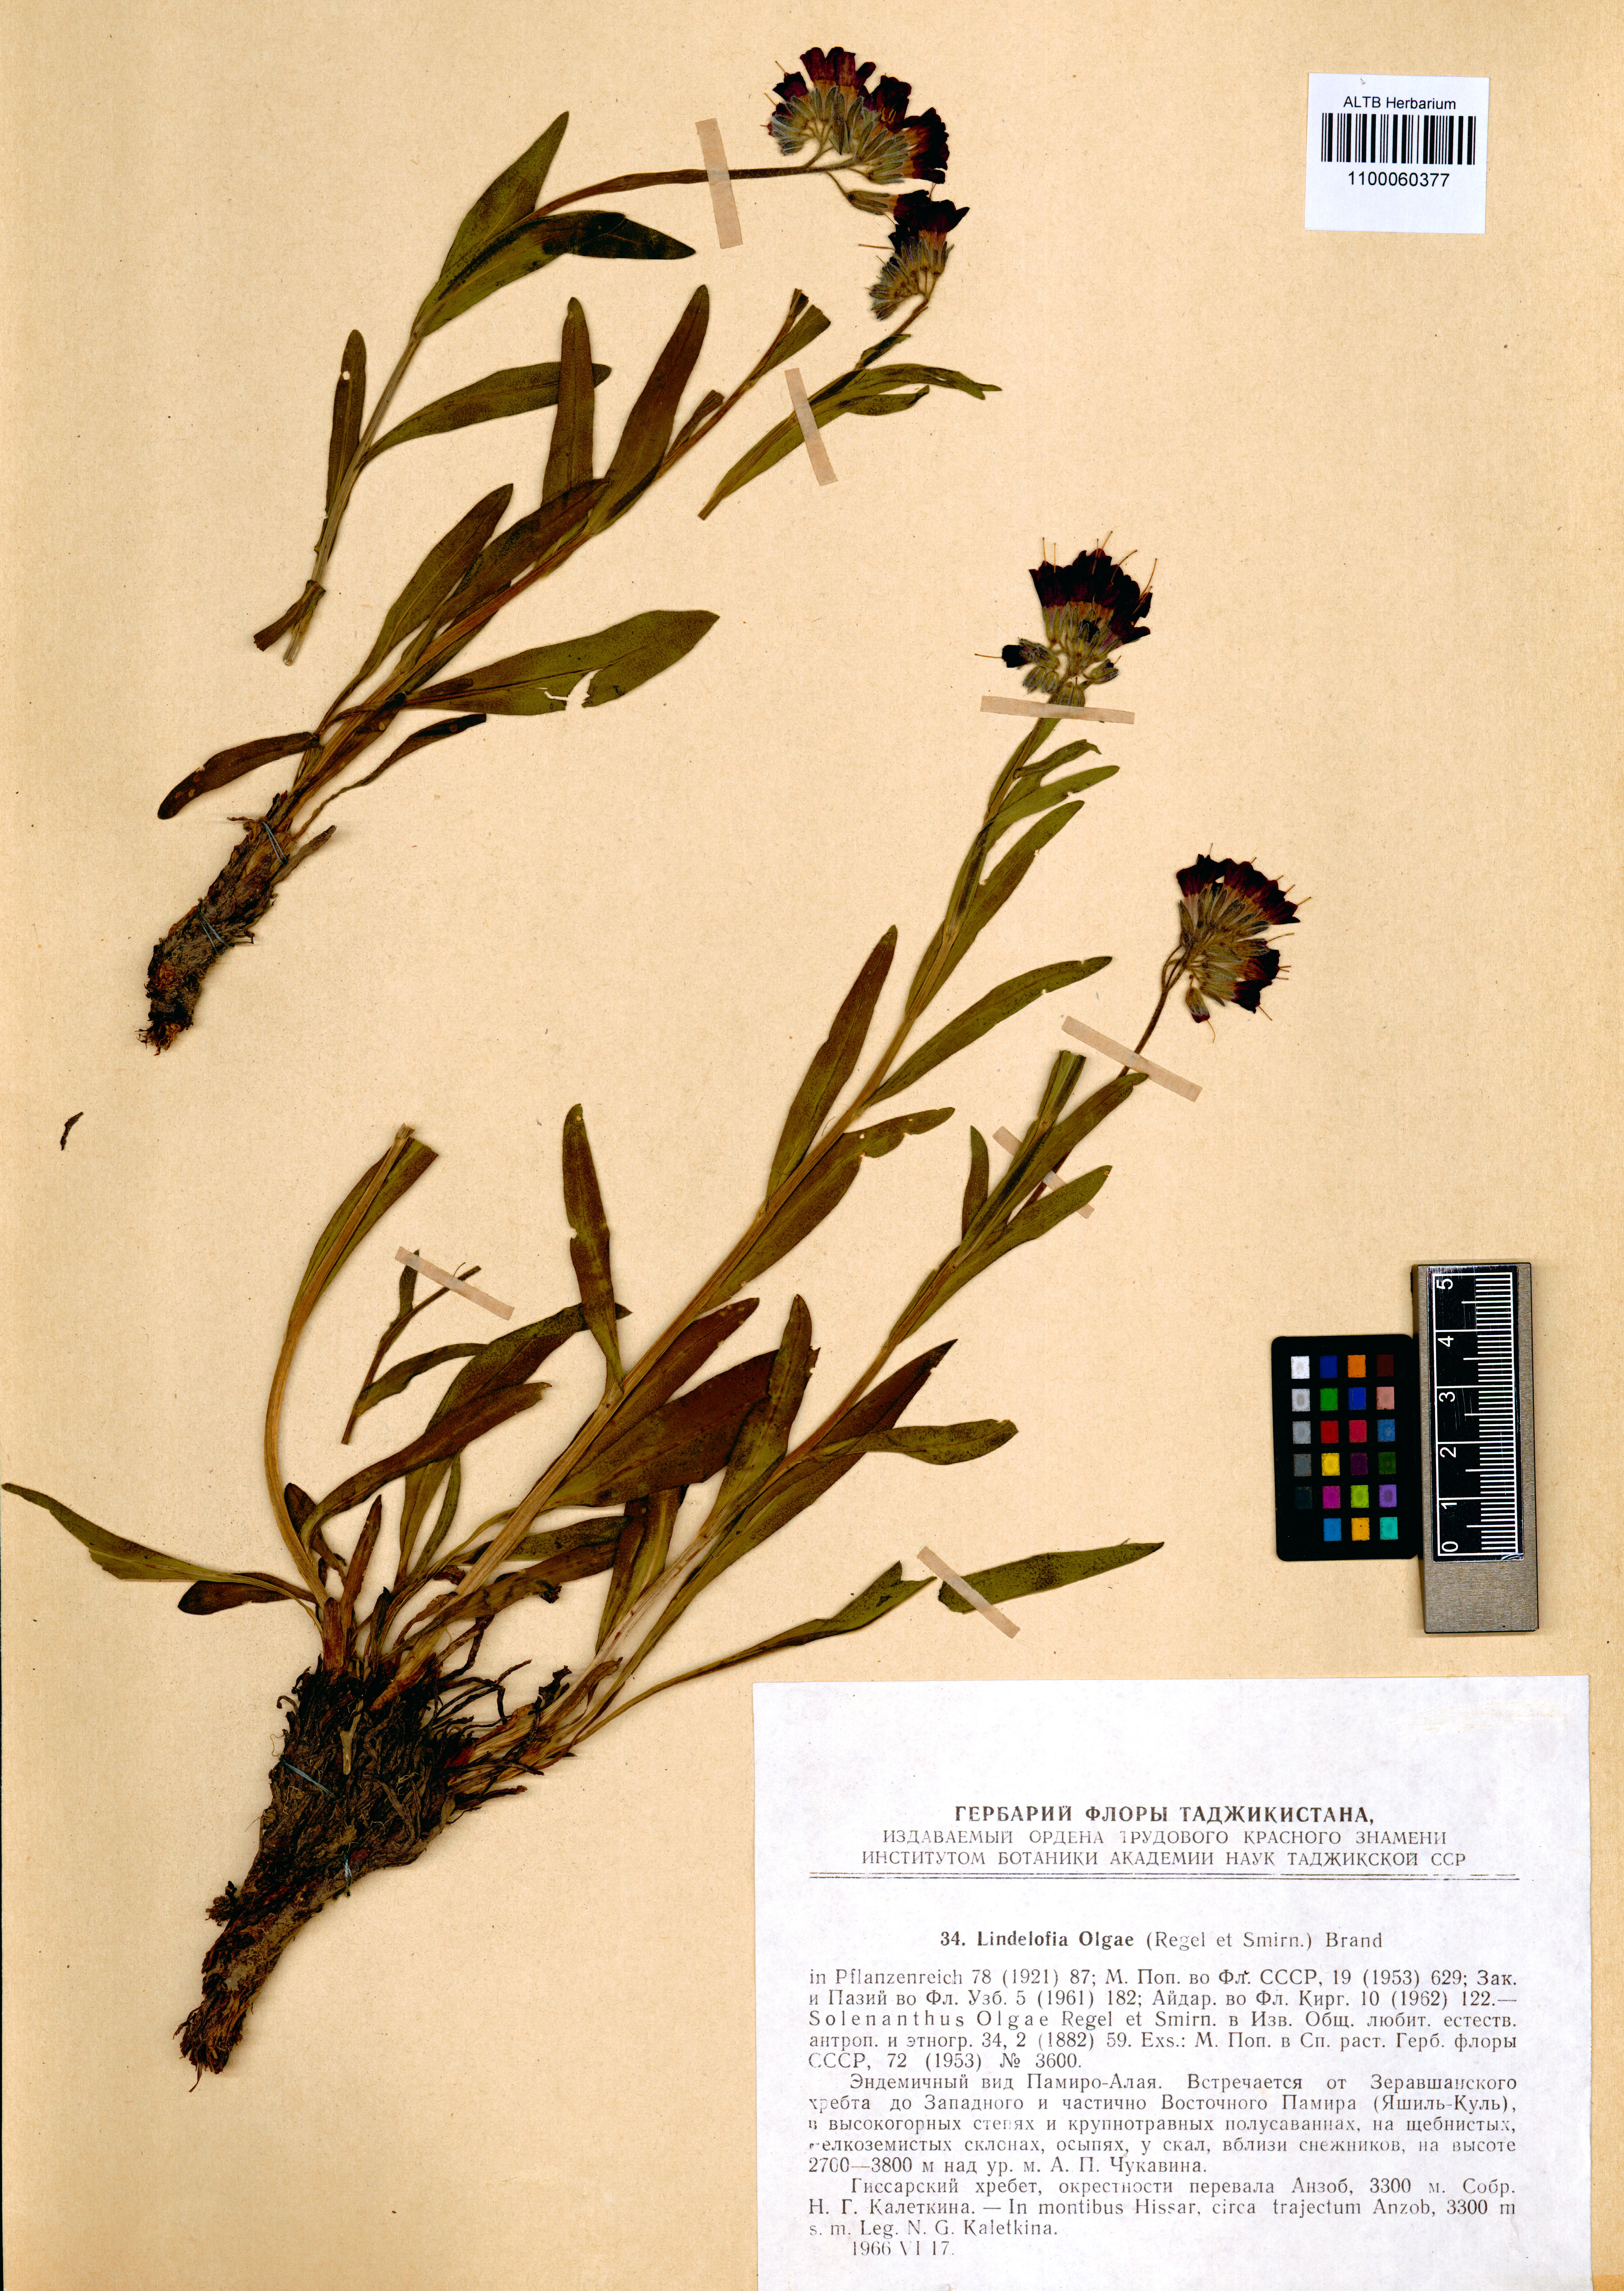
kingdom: Plantae
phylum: Tracheophyta
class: Magnoliopsida
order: Boraginales
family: Boraginaceae
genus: Lindelofia
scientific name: Lindelofia olgae
